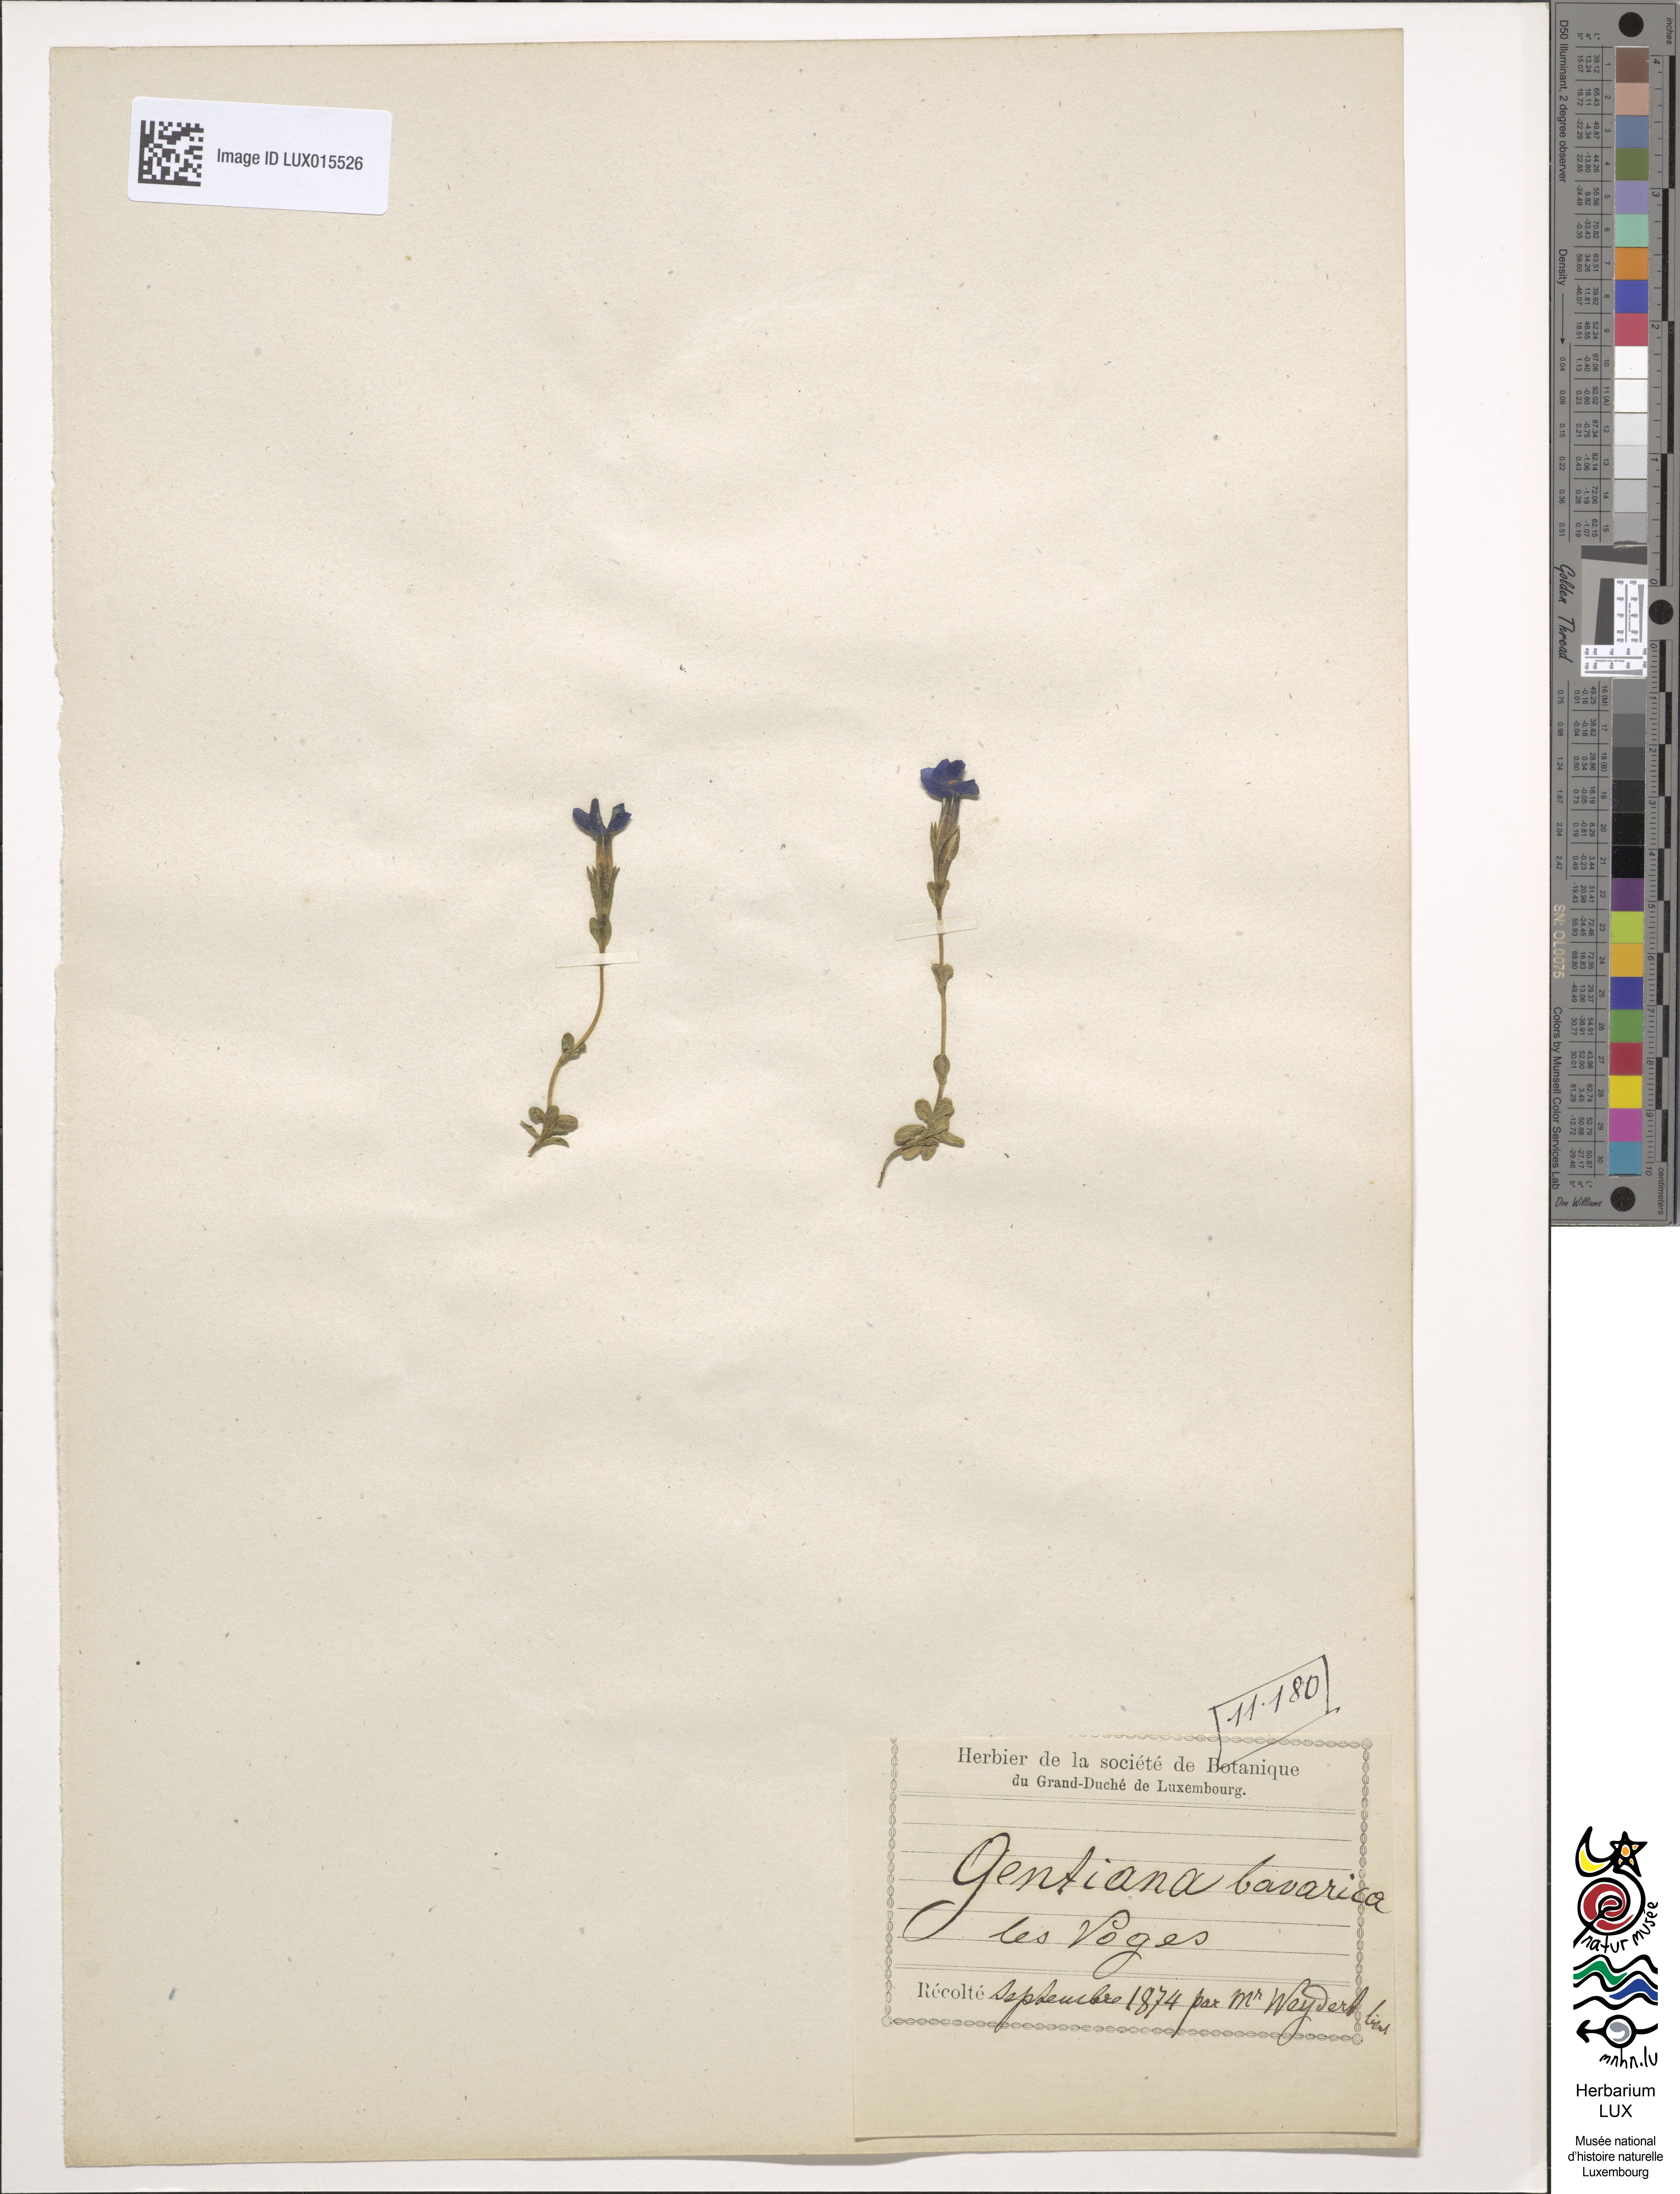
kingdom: Plantae
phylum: Tracheophyta
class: Magnoliopsida
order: Gentianales
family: Gentianaceae
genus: Gentiana
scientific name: Gentiana bavarica
